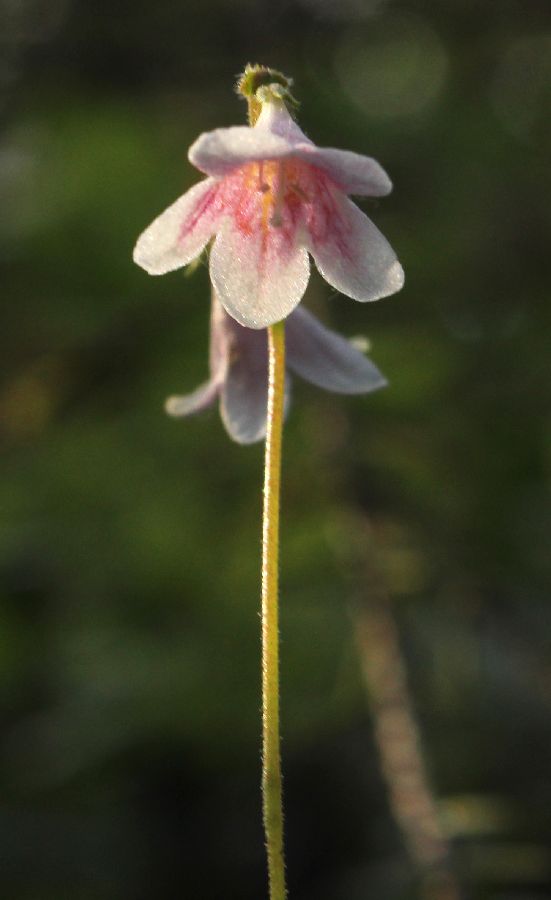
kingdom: Plantae
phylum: Tracheophyta
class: Magnoliopsida
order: Dipsacales
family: Caprifoliaceae
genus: Linnaea
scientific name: Linnaea borealis
